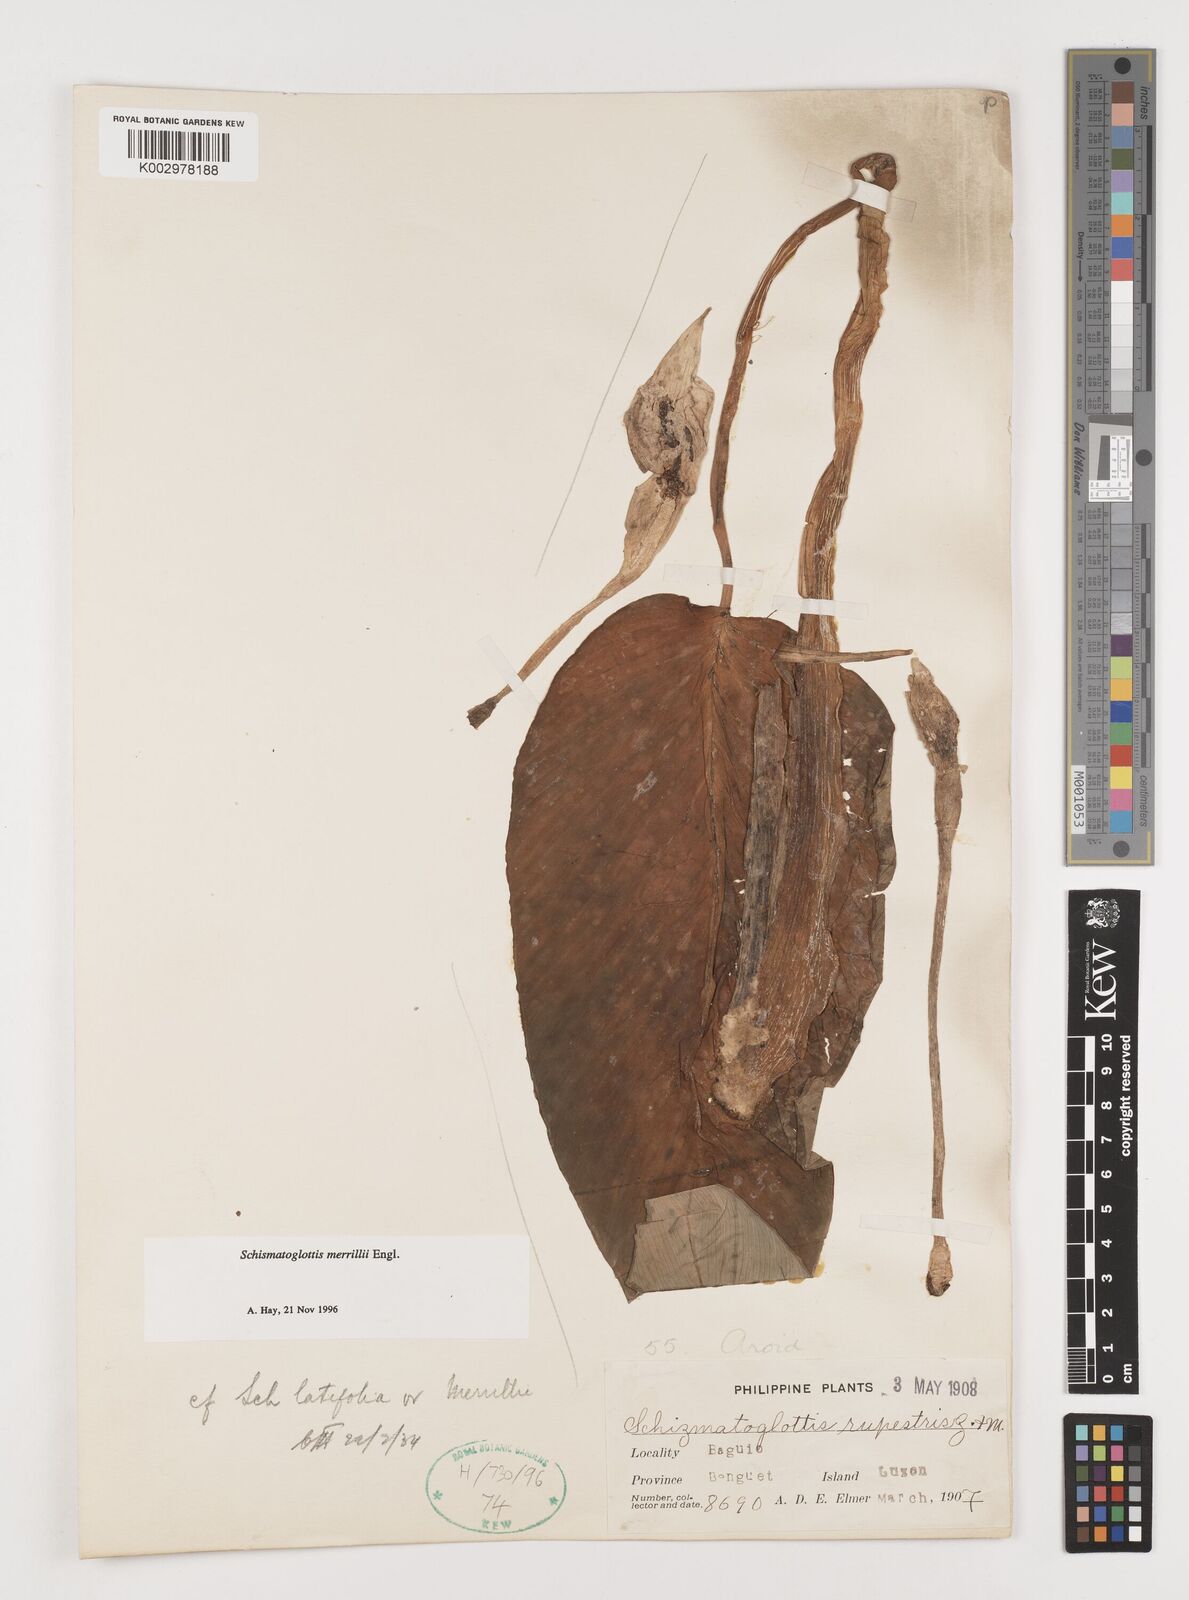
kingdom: Plantae
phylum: Tracheophyta
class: Liliopsida
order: Alismatales
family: Araceae
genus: Schismatoglottis
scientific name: Schismatoglottis merrillii
